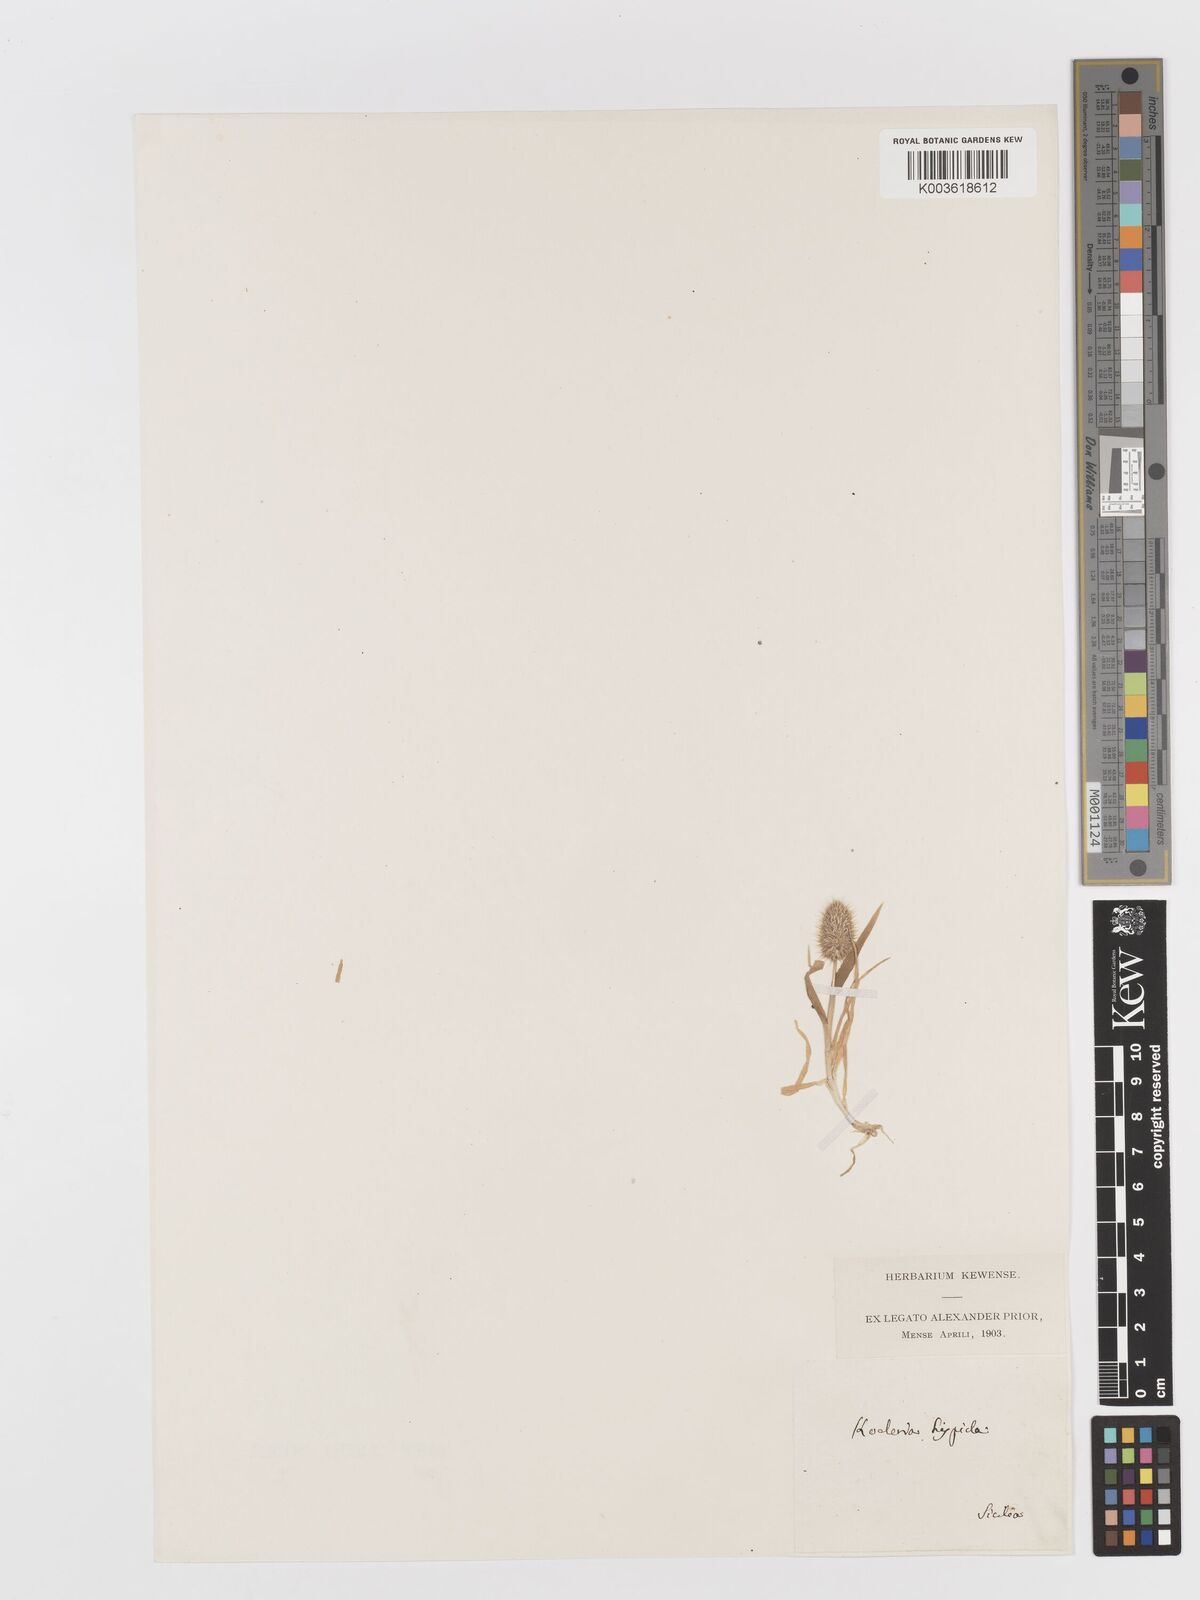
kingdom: Plantae
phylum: Tracheophyta
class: Liliopsida
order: Poales
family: Poaceae
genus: Rostraria
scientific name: Rostraria hispida
